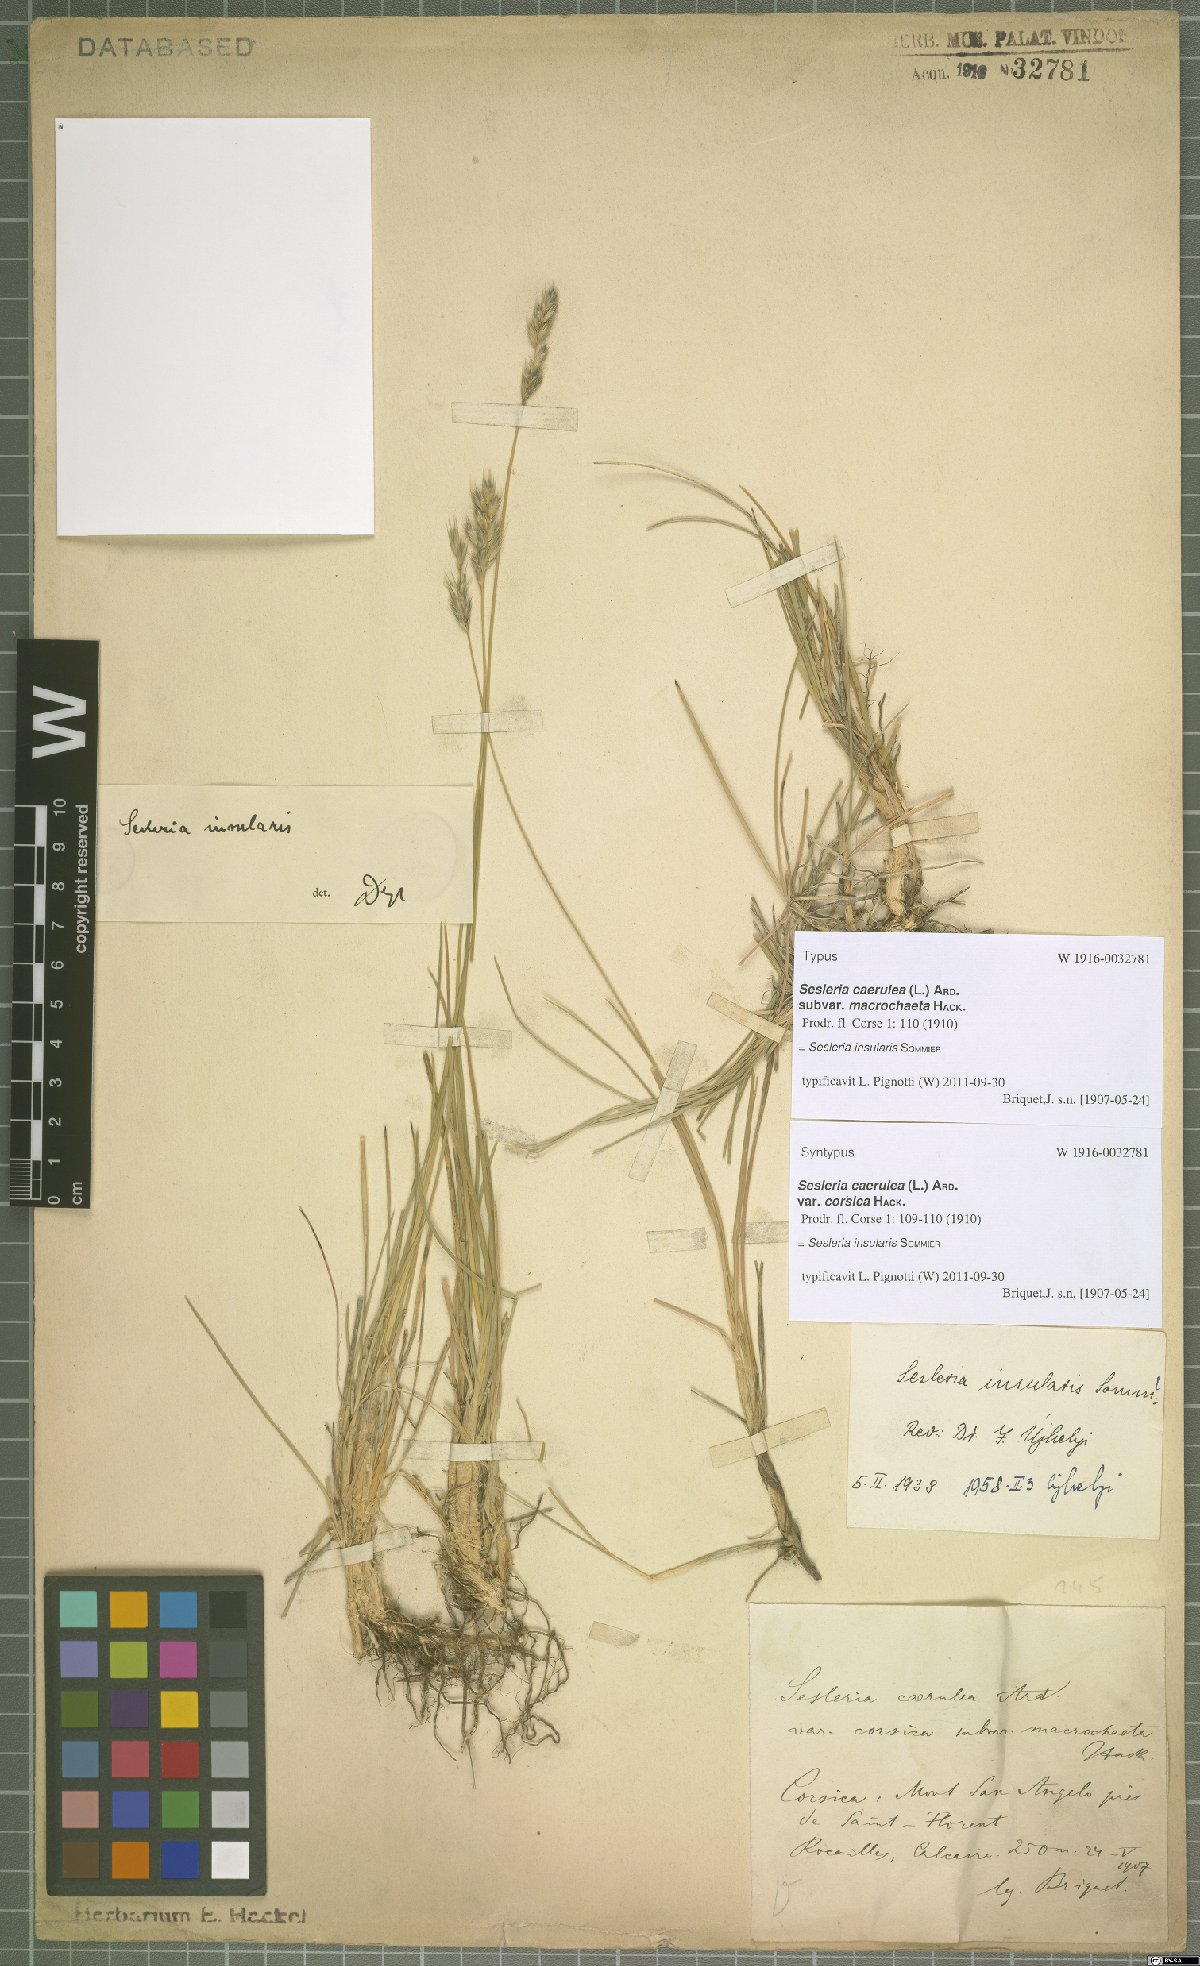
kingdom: Plantae
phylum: Tracheophyta
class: Liliopsida
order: Poales
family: Poaceae
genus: Sesleria
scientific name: Sesleria insularis
